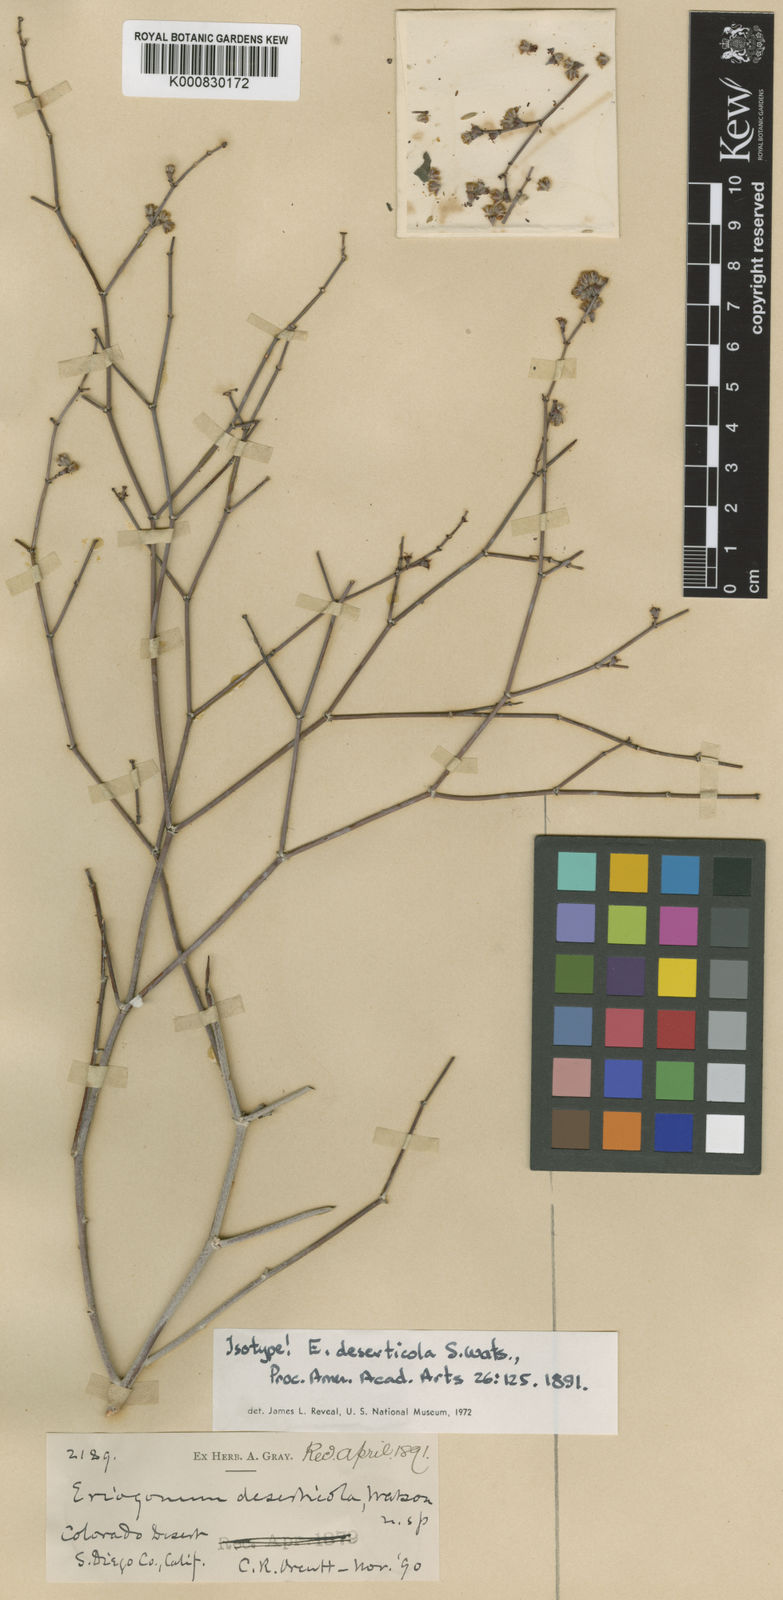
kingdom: Plantae
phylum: Tracheophyta
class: Magnoliopsida
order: Caryophyllales
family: Polygonaceae
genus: Eriogonum
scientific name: Eriogonum deserticola
